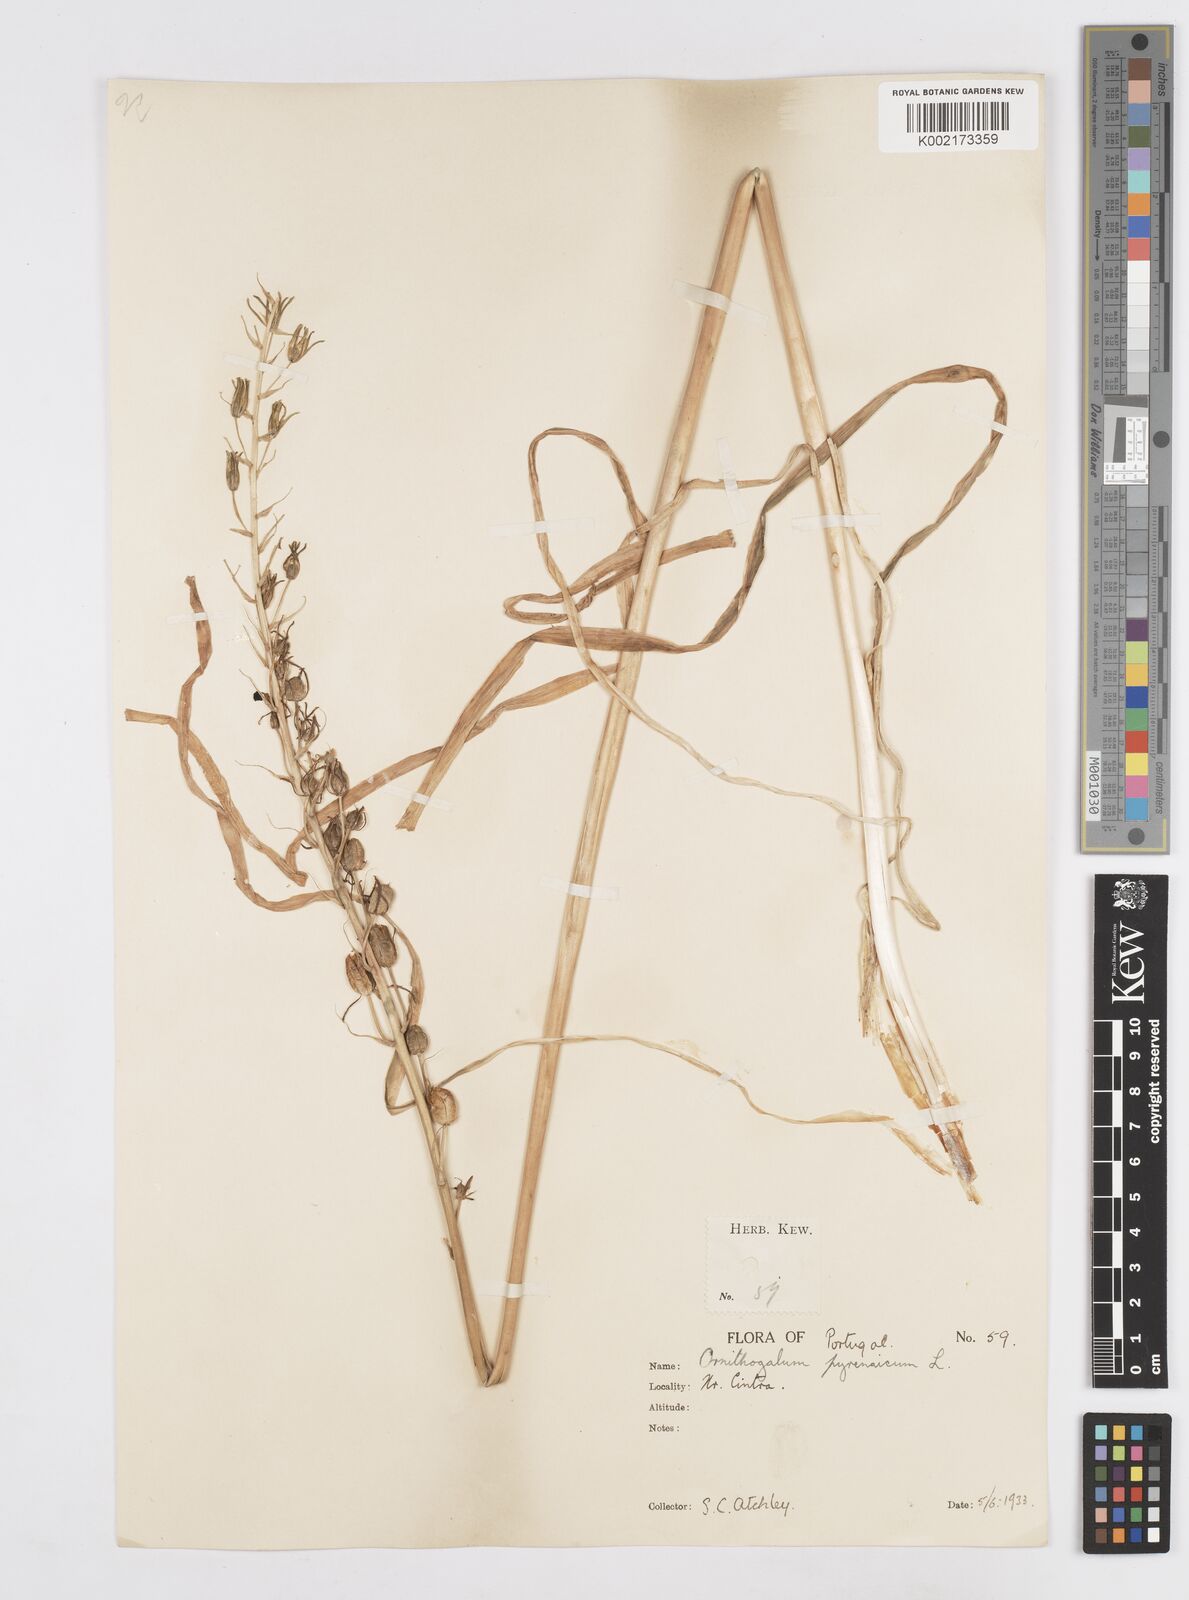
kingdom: Plantae
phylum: Tracheophyta
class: Liliopsida
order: Asparagales
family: Asparagaceae
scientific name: Asparagaceae
